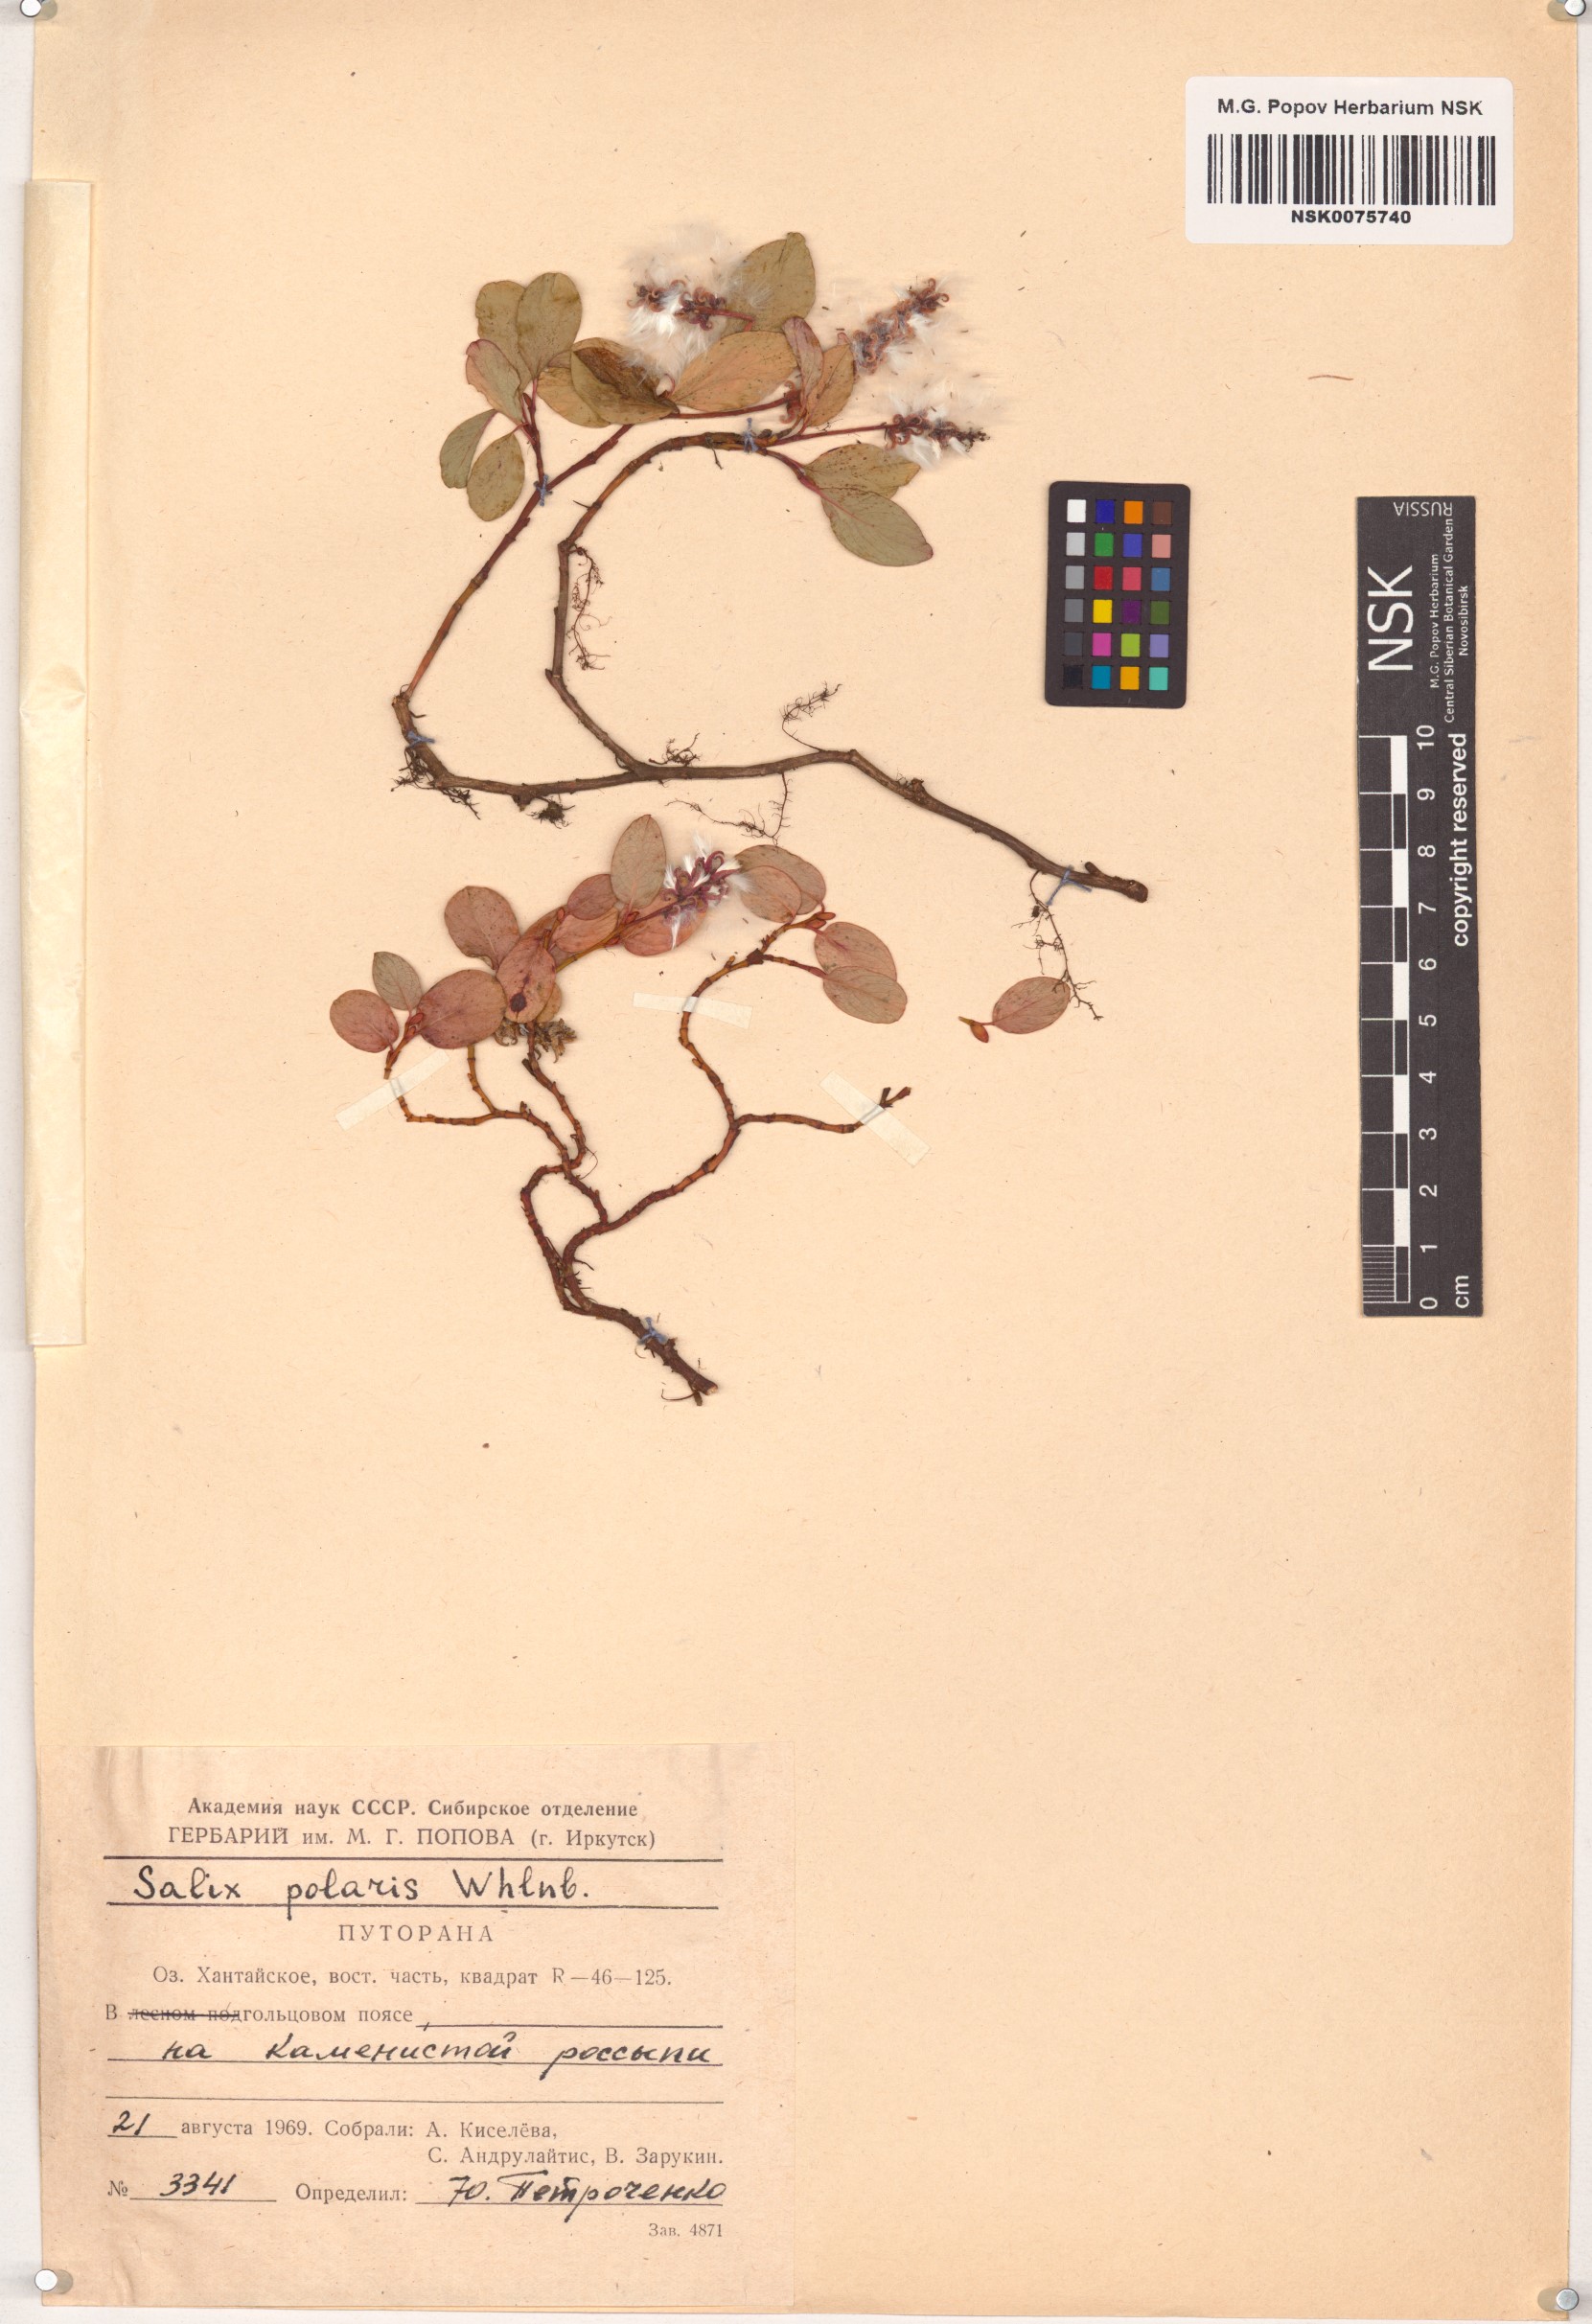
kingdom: Plantae
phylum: Tracheophyta
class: Magnoliopsida
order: Malpighiales
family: Salicaceae
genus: Salix
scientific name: Salix polaris
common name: Polar willow
